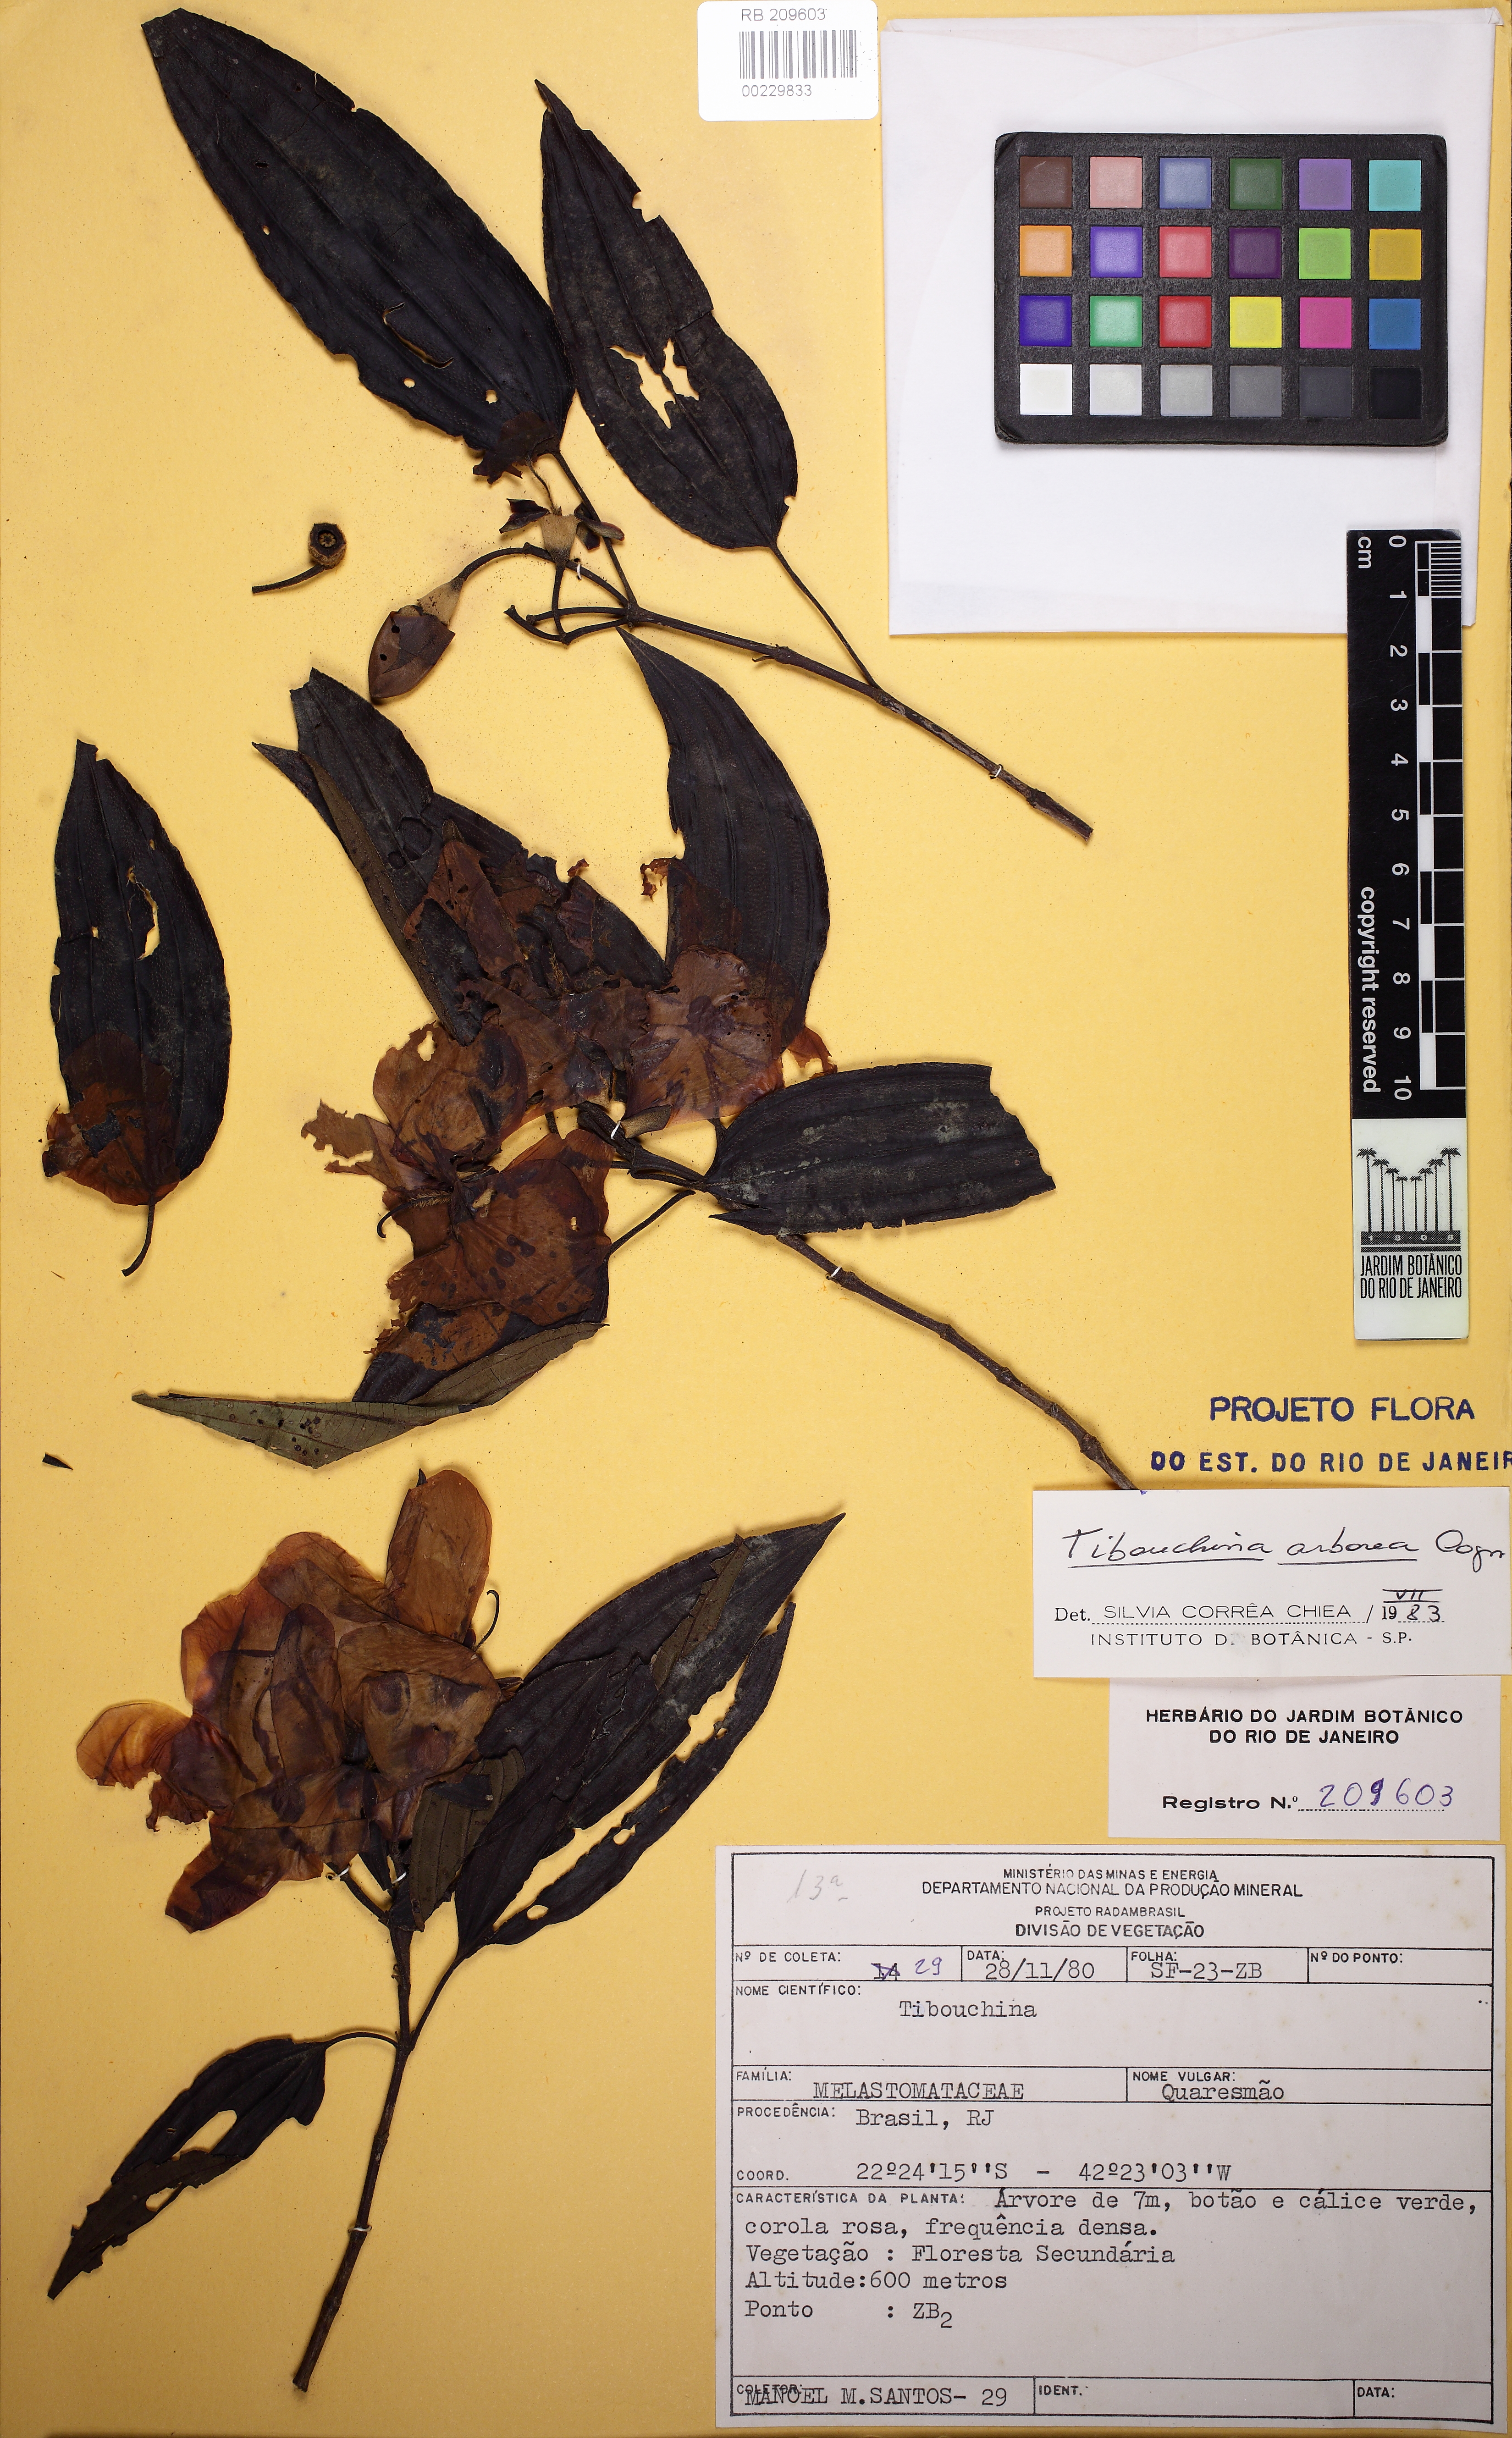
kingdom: Plantae
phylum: Tracheophyta
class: Magnoliopsida
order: Myrtales
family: Melastomataceae
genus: Pleroma
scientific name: Pleroma arboreum
